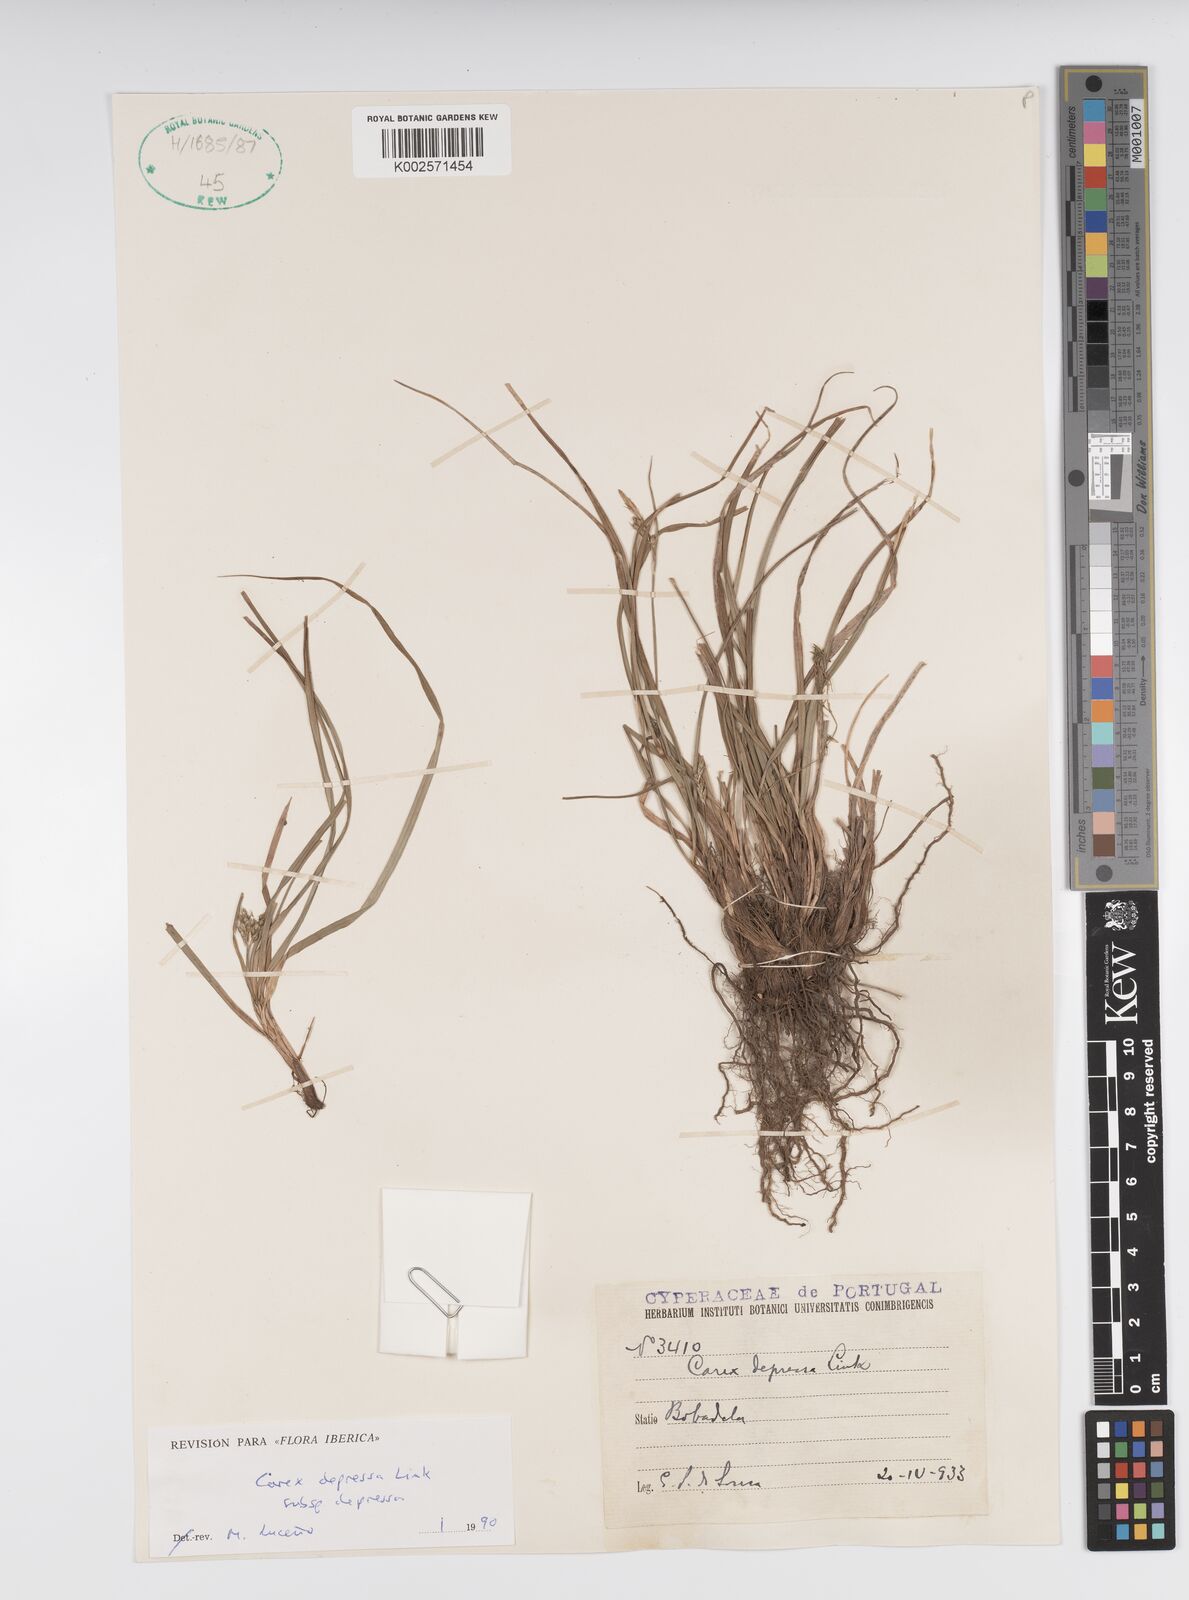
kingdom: Plantae
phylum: Tracheophyta
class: Liliopsida
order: Poales
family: Cyperaceae
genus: Carex
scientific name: Carex depressa
